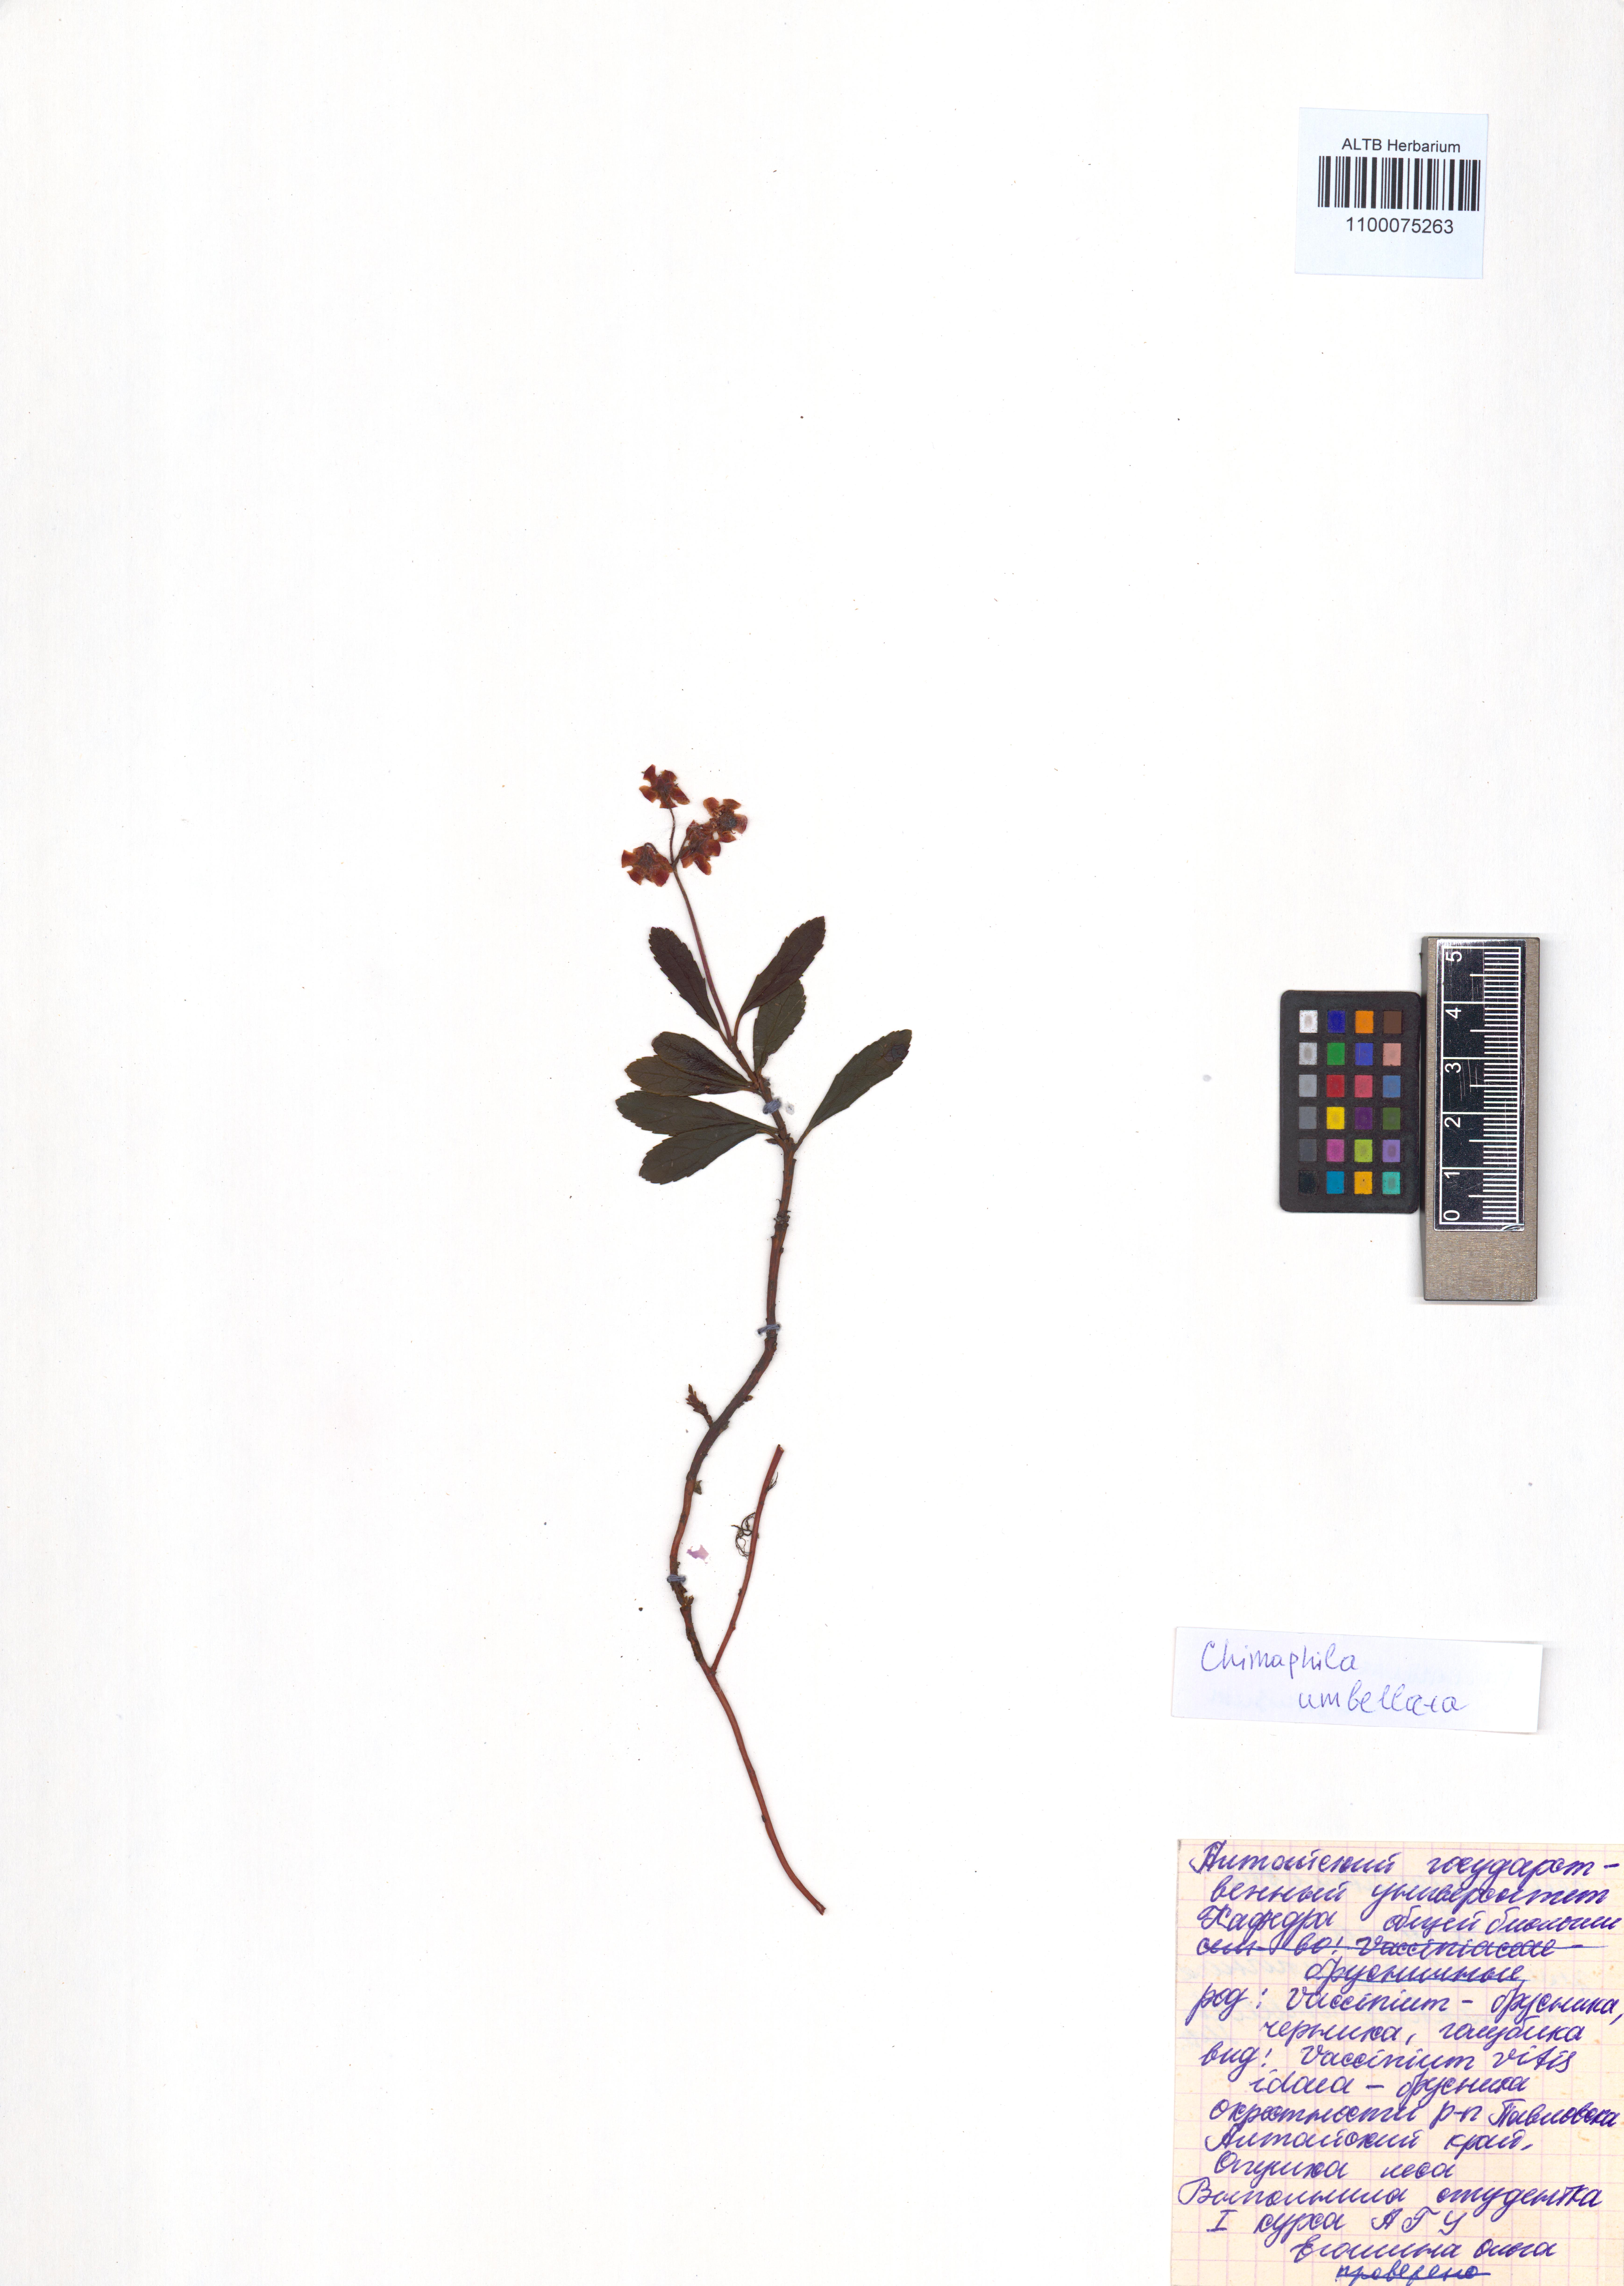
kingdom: Plantae
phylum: Tracheophyta
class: Magnoliopsida
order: Ericales
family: Ericaceae
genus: Chimaphila
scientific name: Chimaphila umbellata
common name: Pipsissewa
